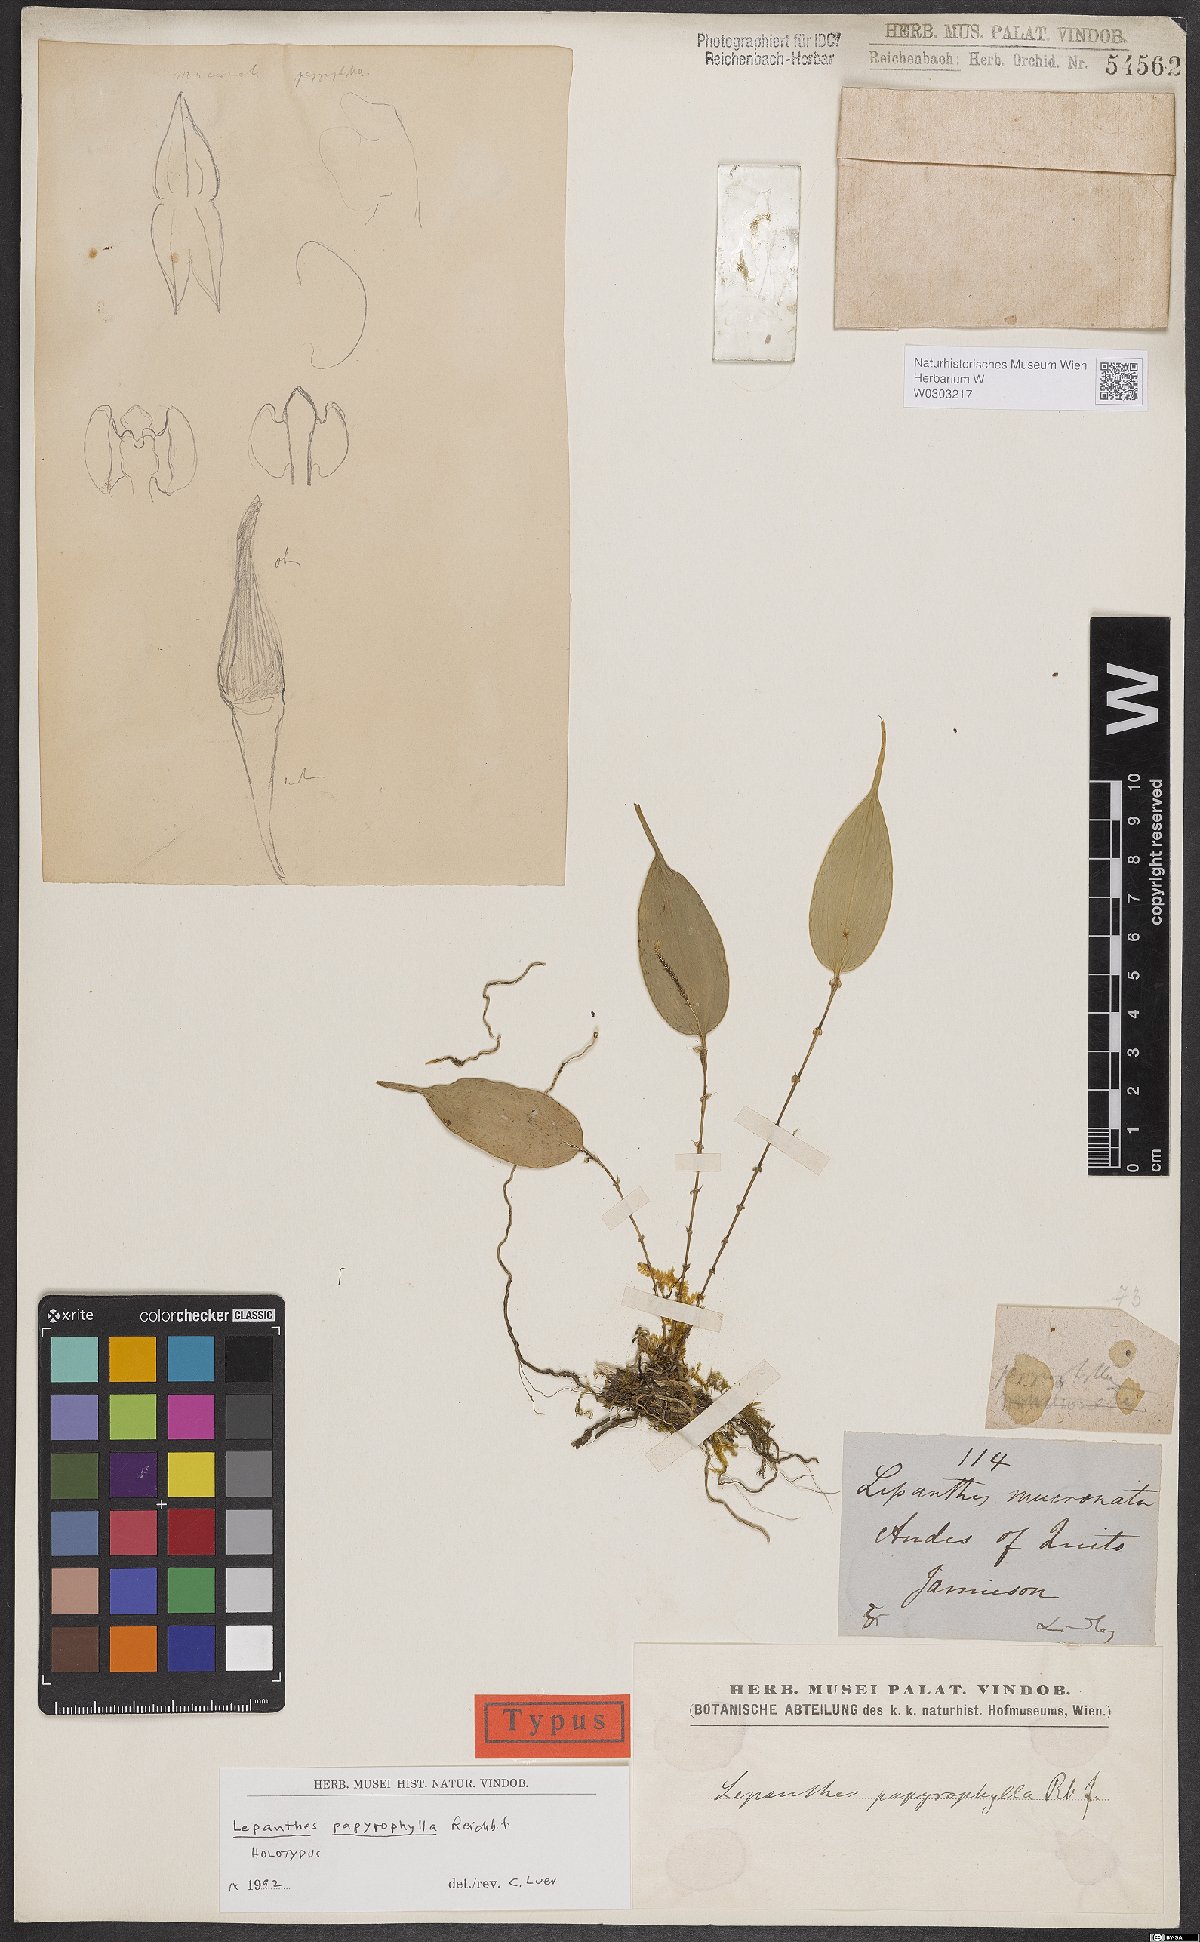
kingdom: Plantae
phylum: Tracheophyta
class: Liliopsida
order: Asparagales
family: Orchidaceae
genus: Lepanthes
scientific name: Lepanthes papyrophylla
